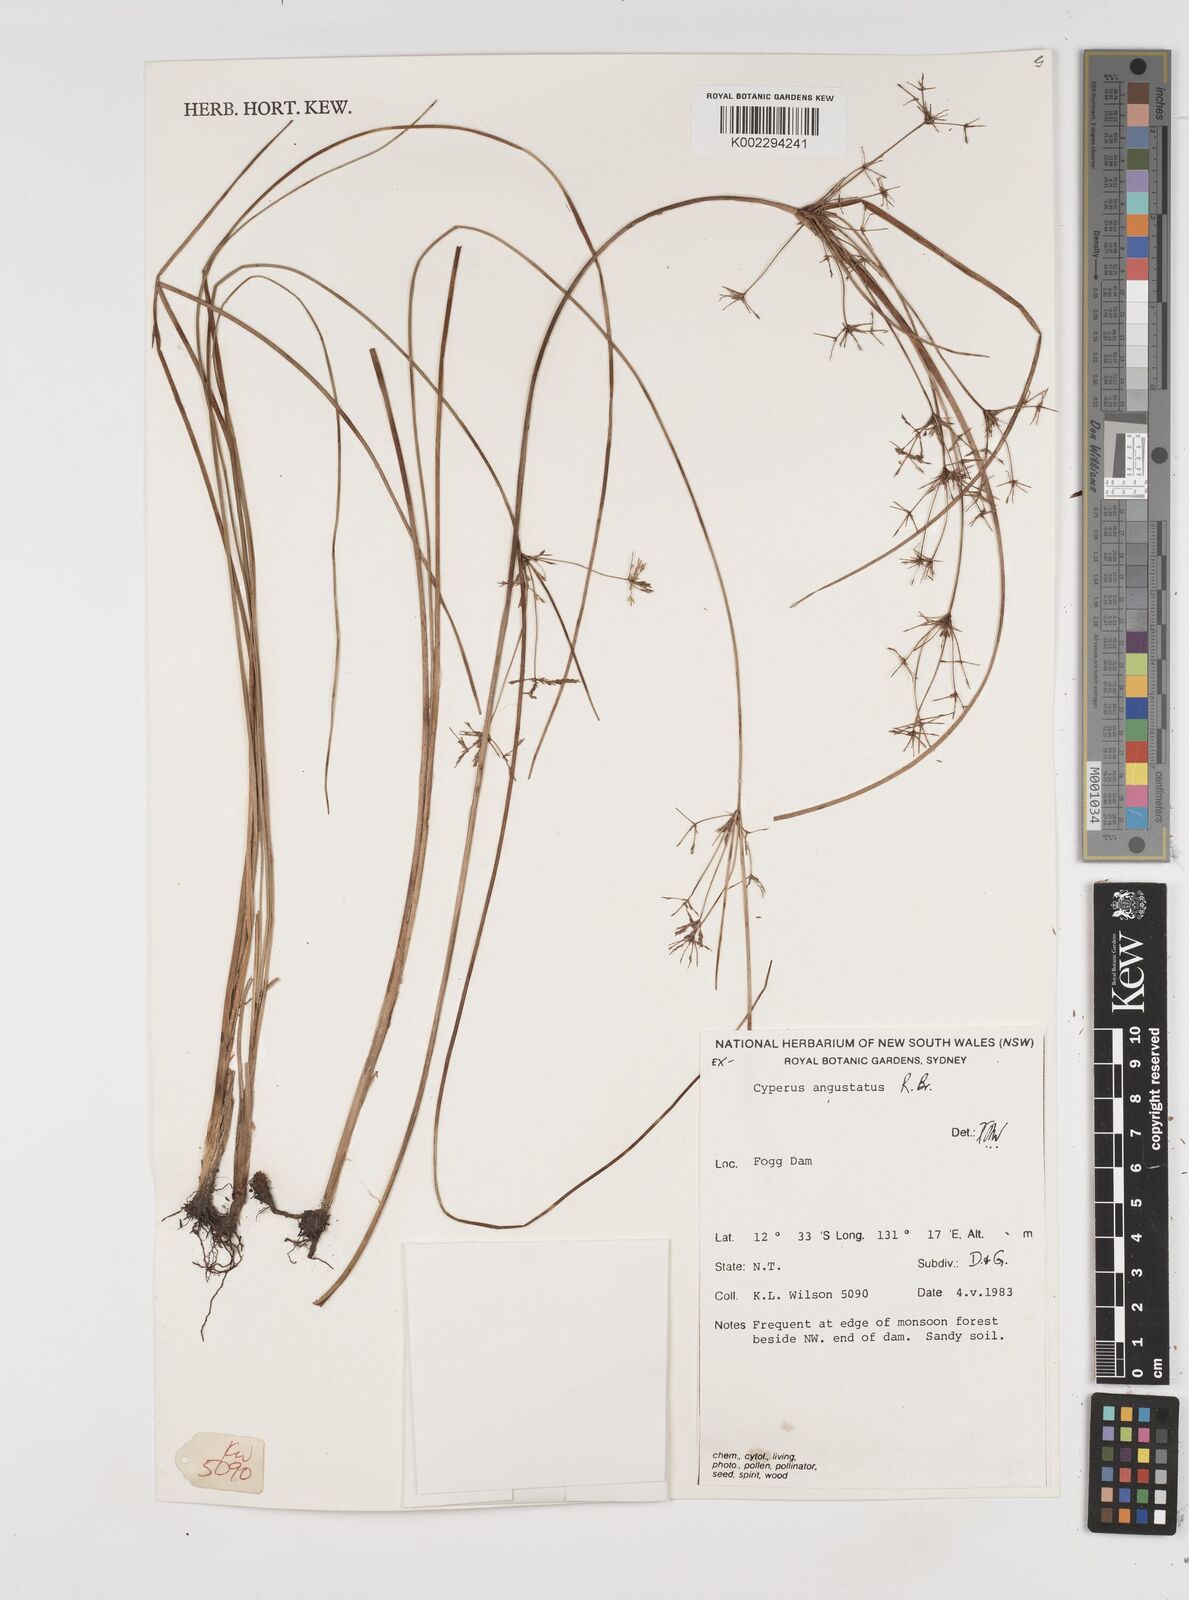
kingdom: Plantae
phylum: Tracheophyta
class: Liliopsida
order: Poales
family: Cyperaceae
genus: Cyperus
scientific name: Cyperus angustatus
